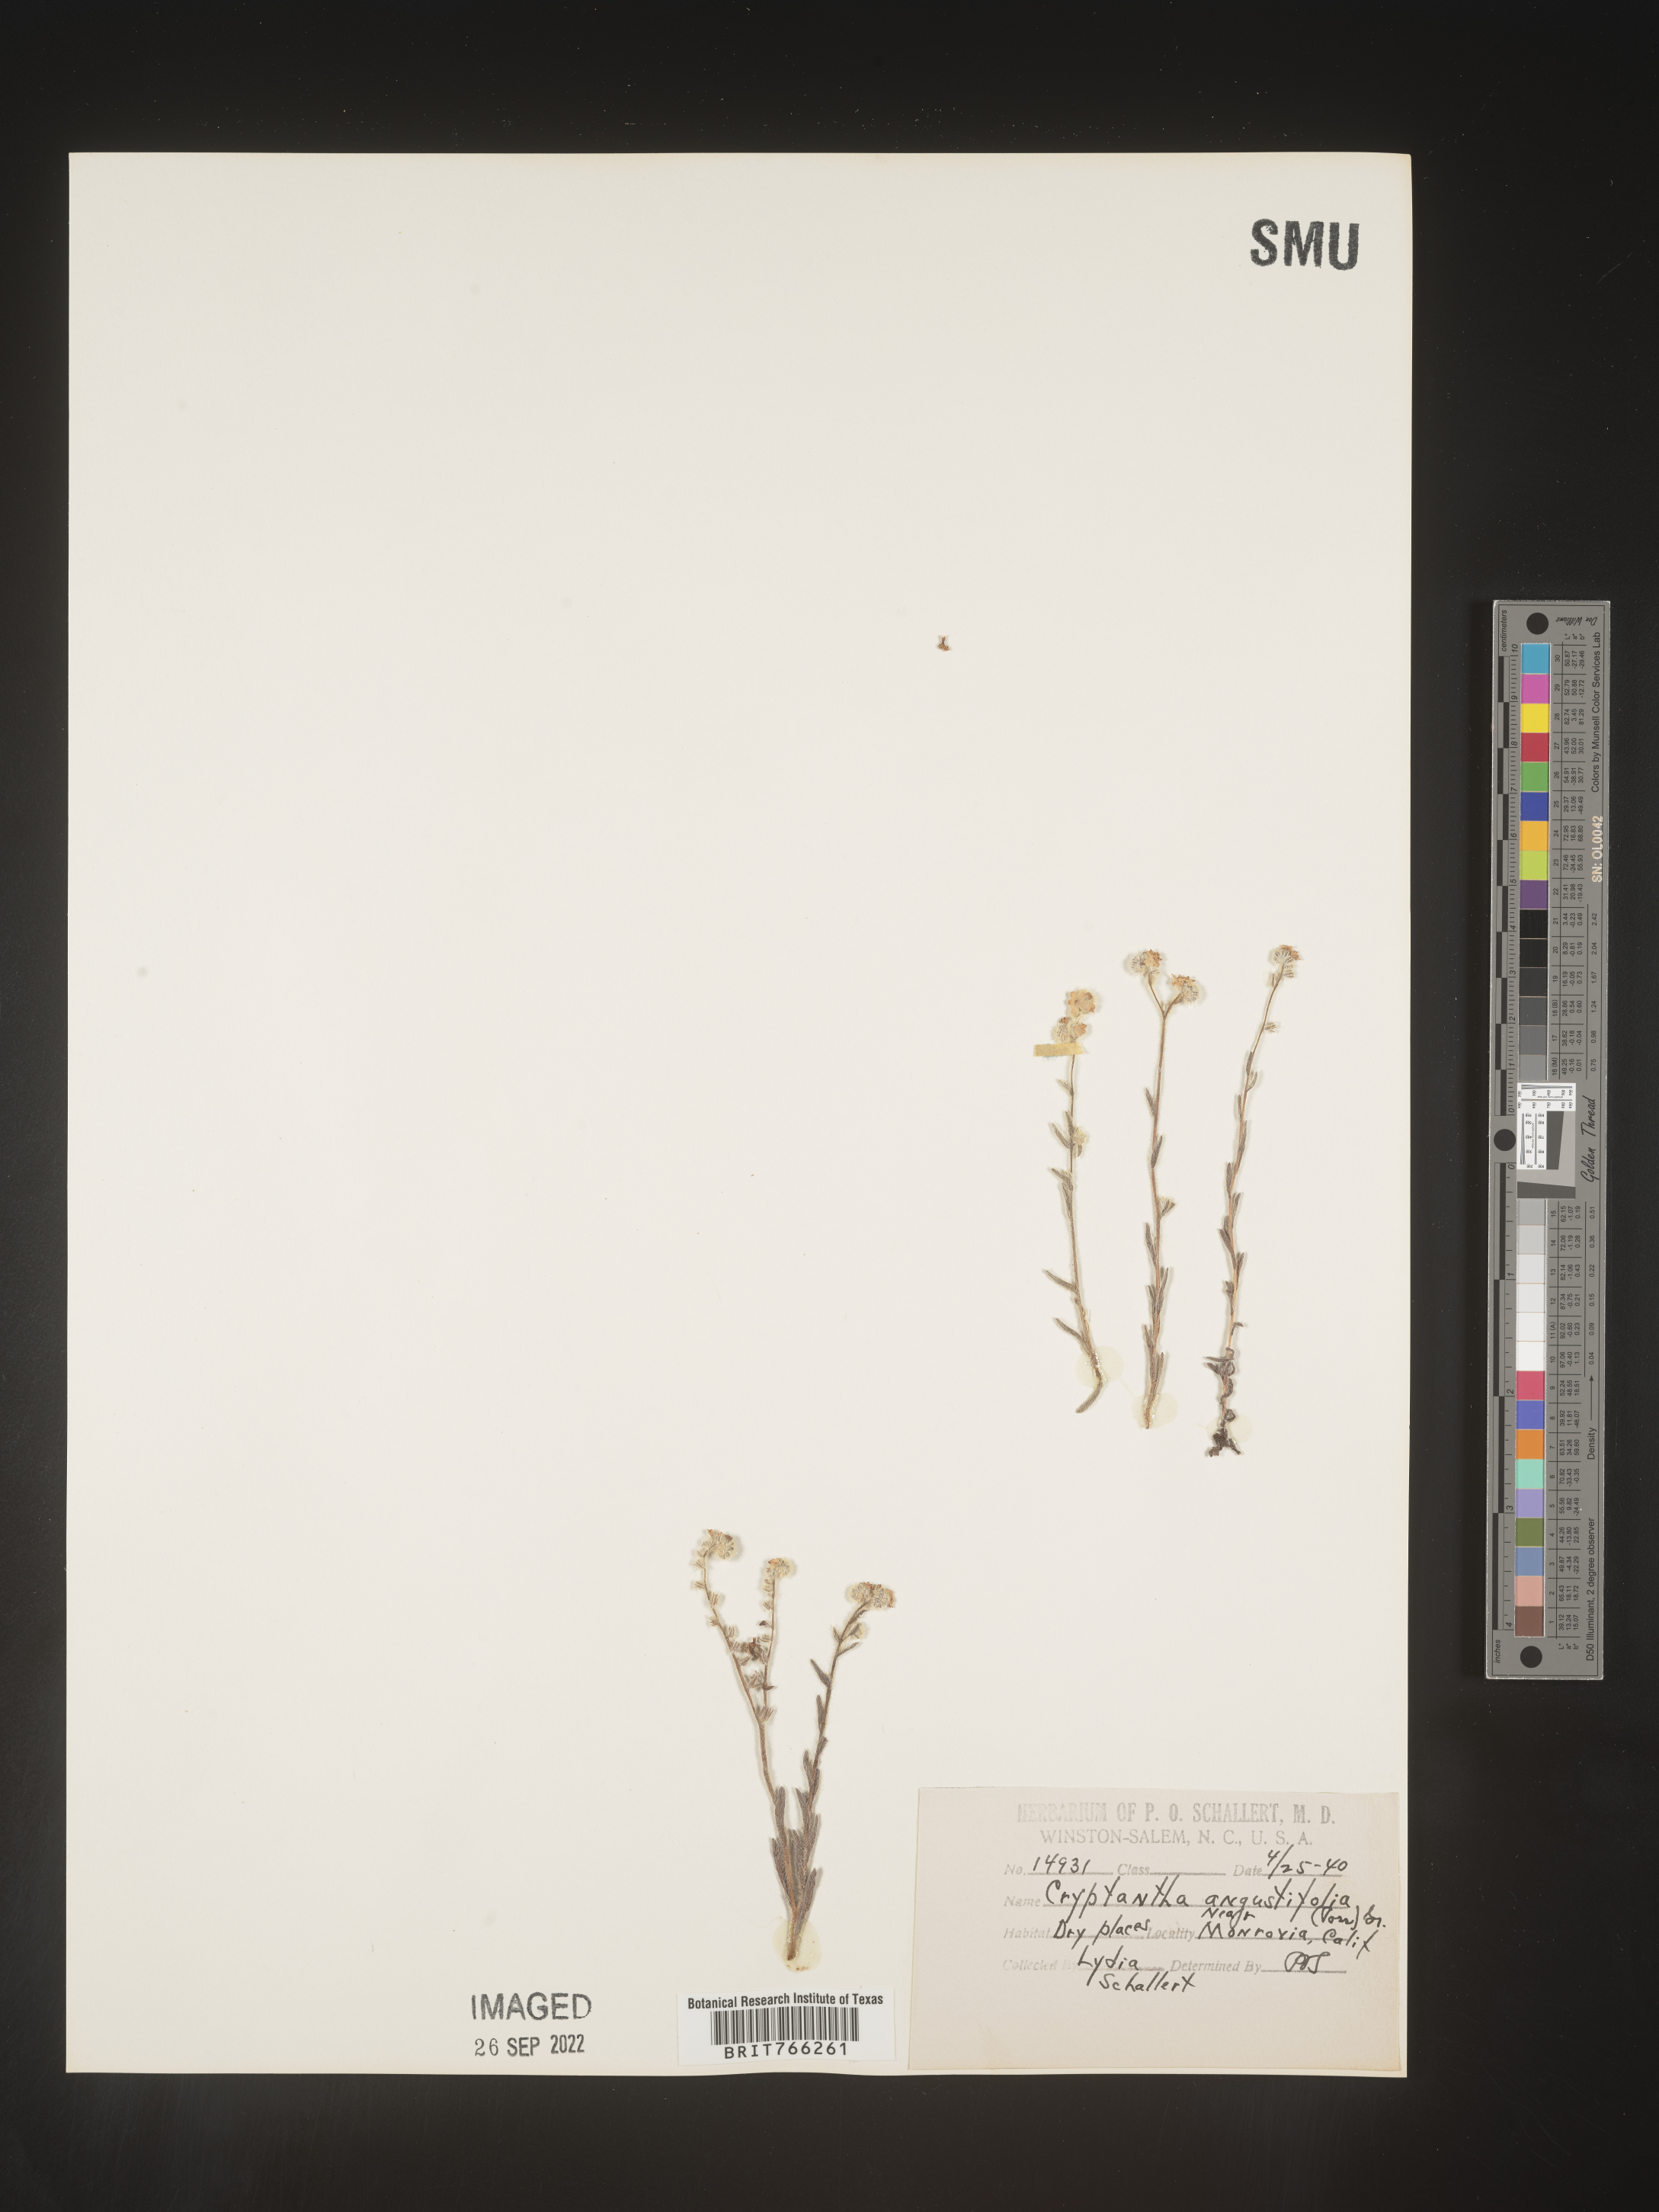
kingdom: Plantae
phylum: Tracheophyta
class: Magnoliopsida
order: Boraginales
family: Boraginaceae
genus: Cryptantha
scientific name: Cryptantha
